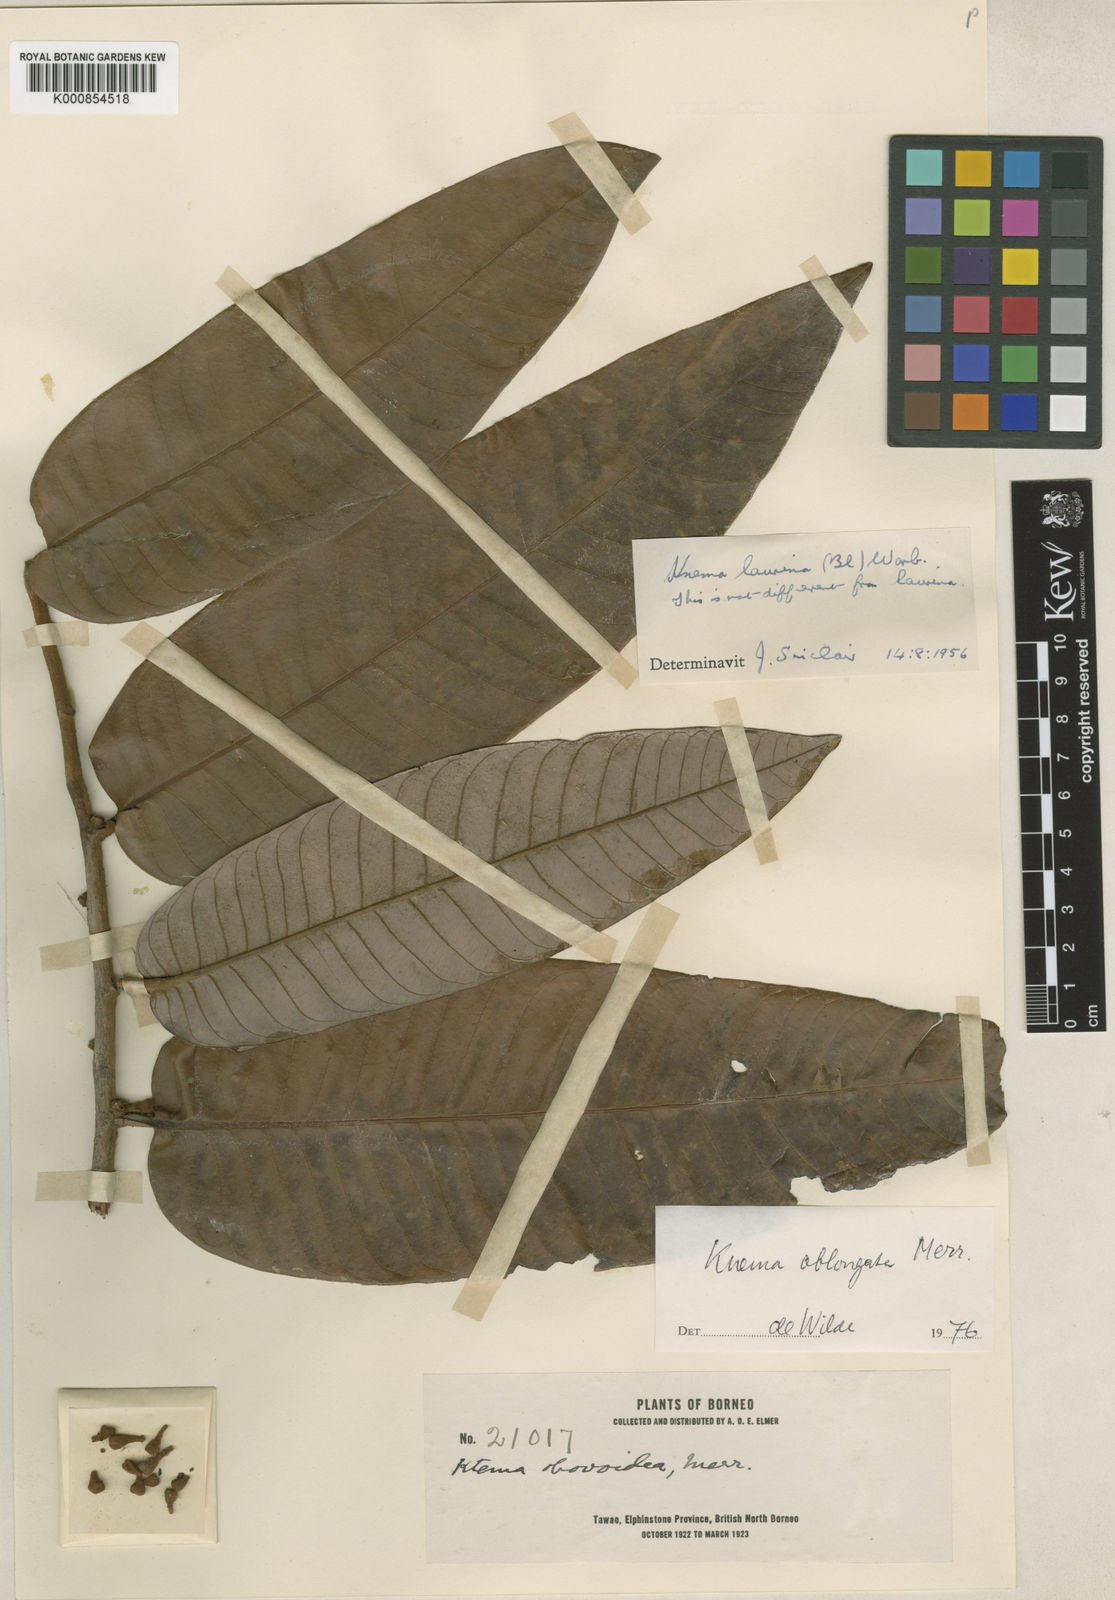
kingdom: Plantae
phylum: Tracheophyta
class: Magnoliopsida
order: Magnoliales
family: Myristicaceae
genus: Knema
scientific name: Knema oblongata
